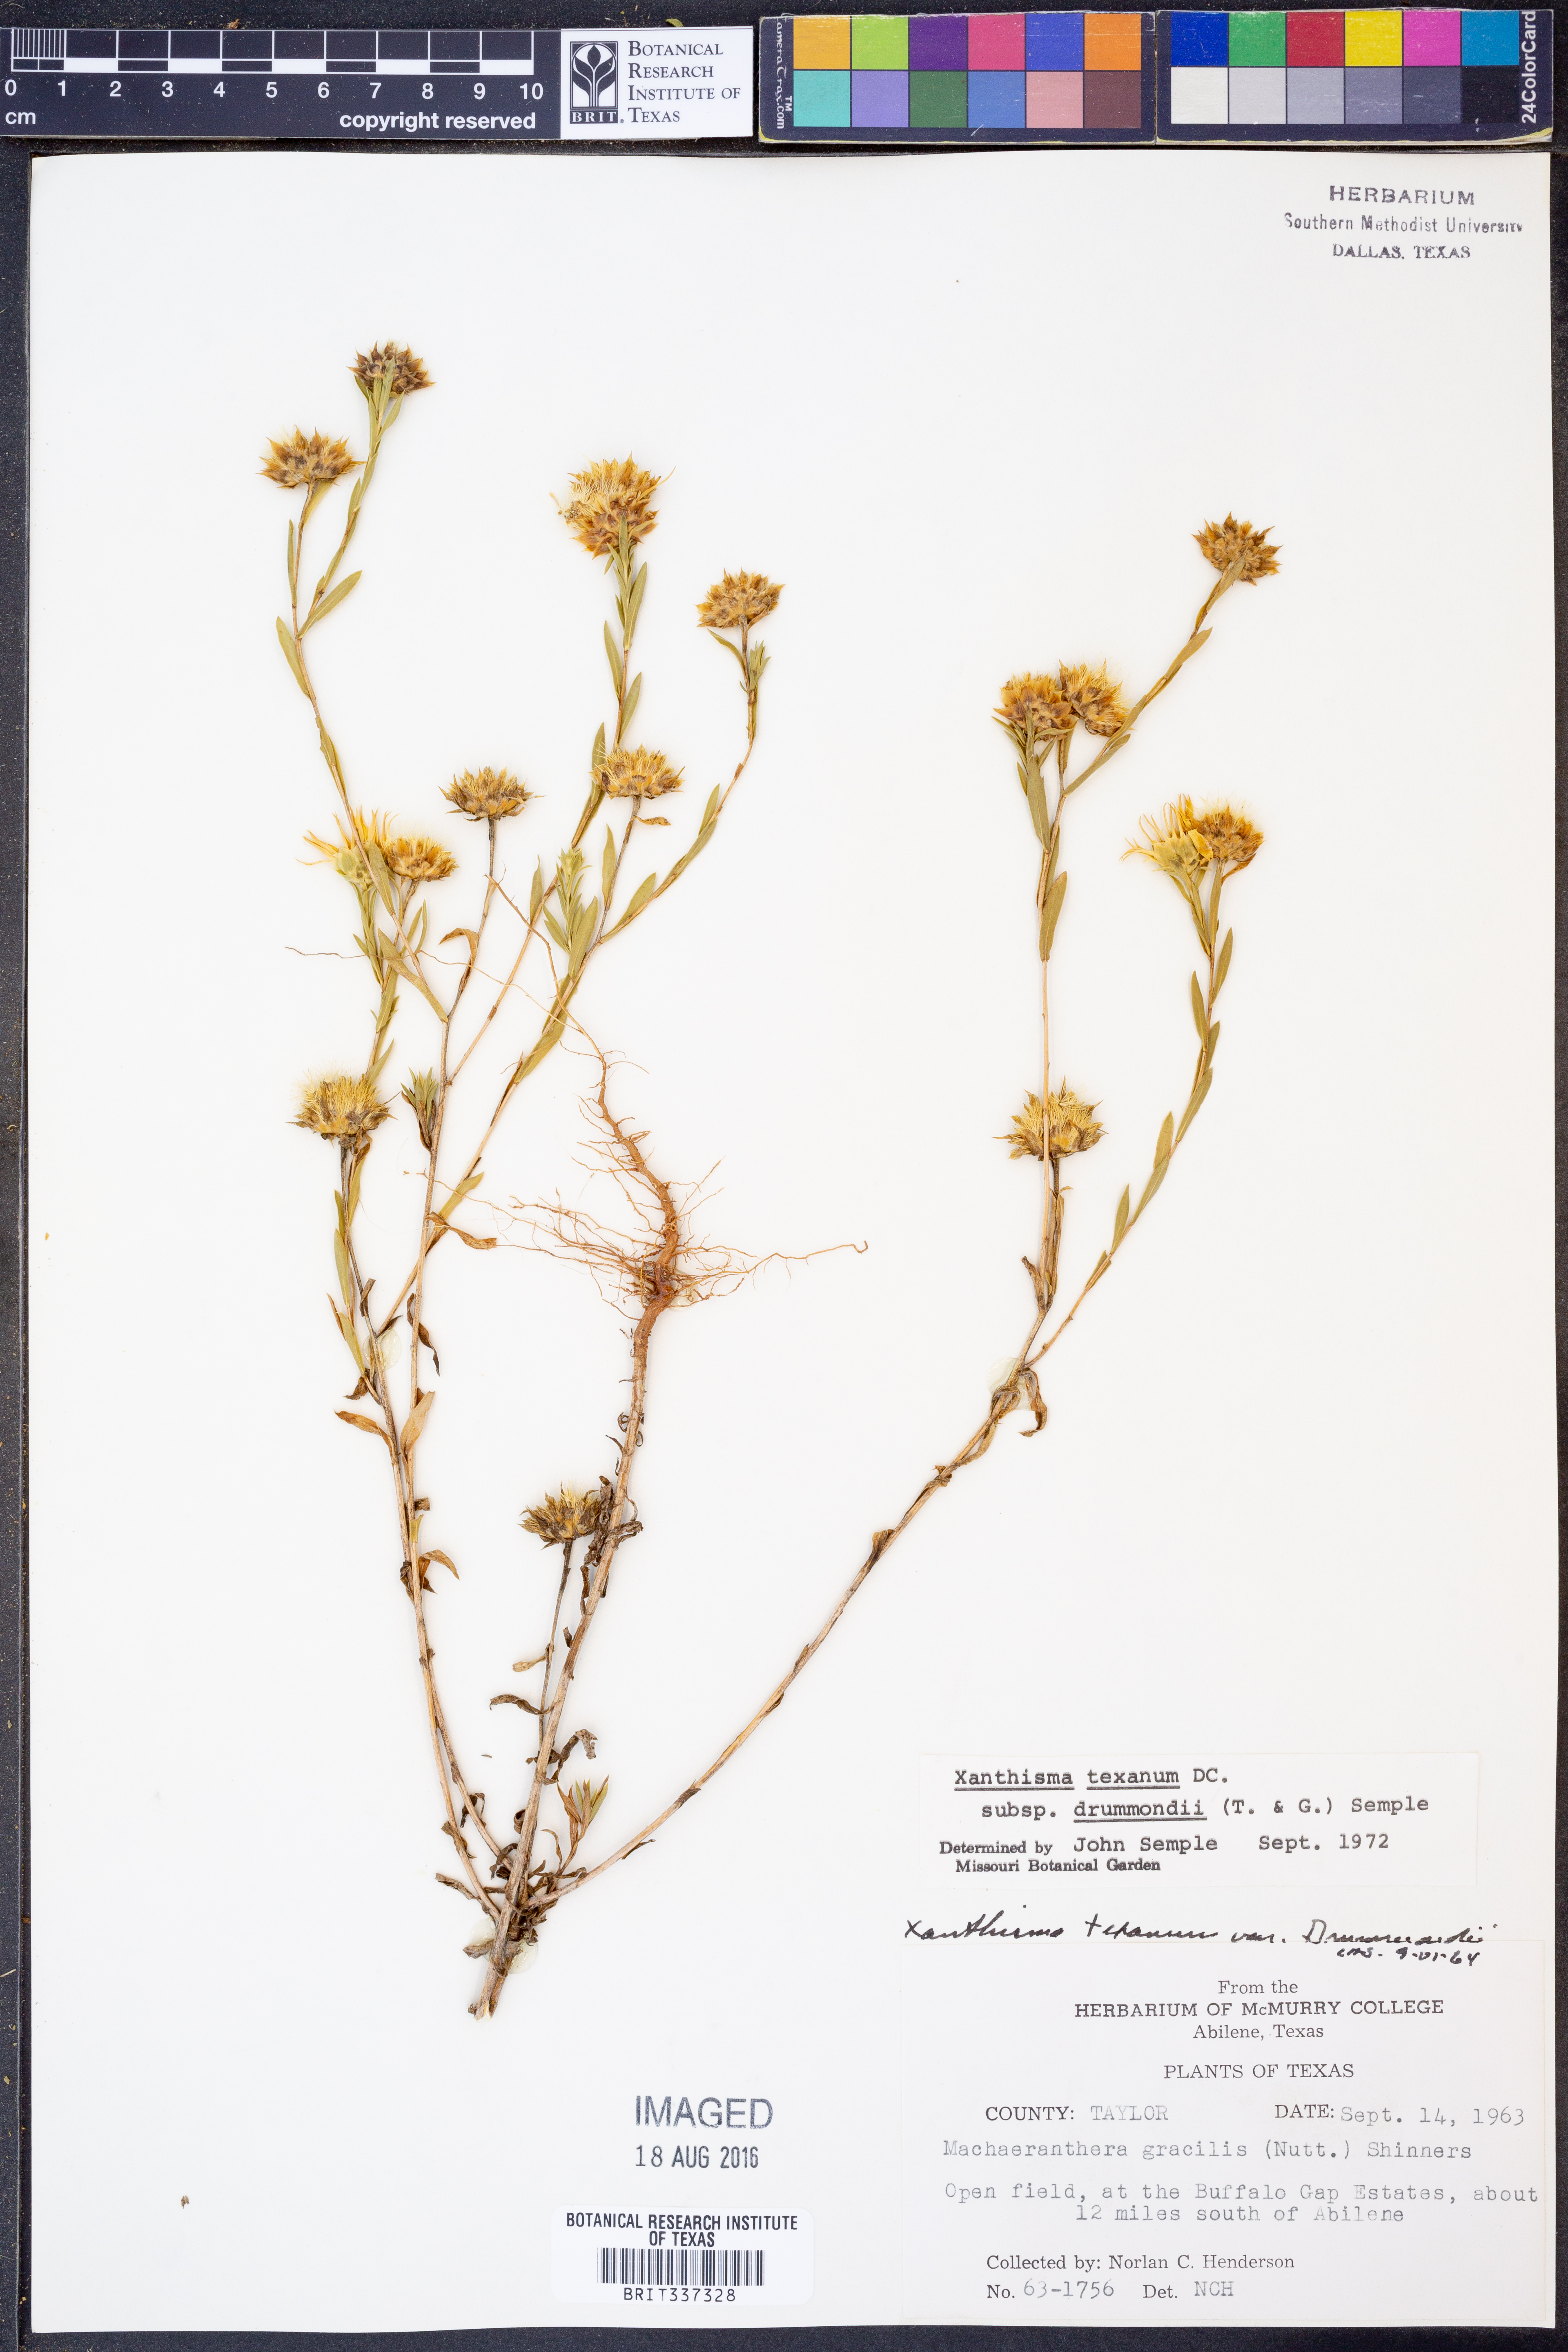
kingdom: Plantae
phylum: Tracheophyta
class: Magnoliopsida
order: Asterales
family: Asteraceae
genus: Xanthisma
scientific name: Xanthisma texanum
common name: Texas sleepy daisy
